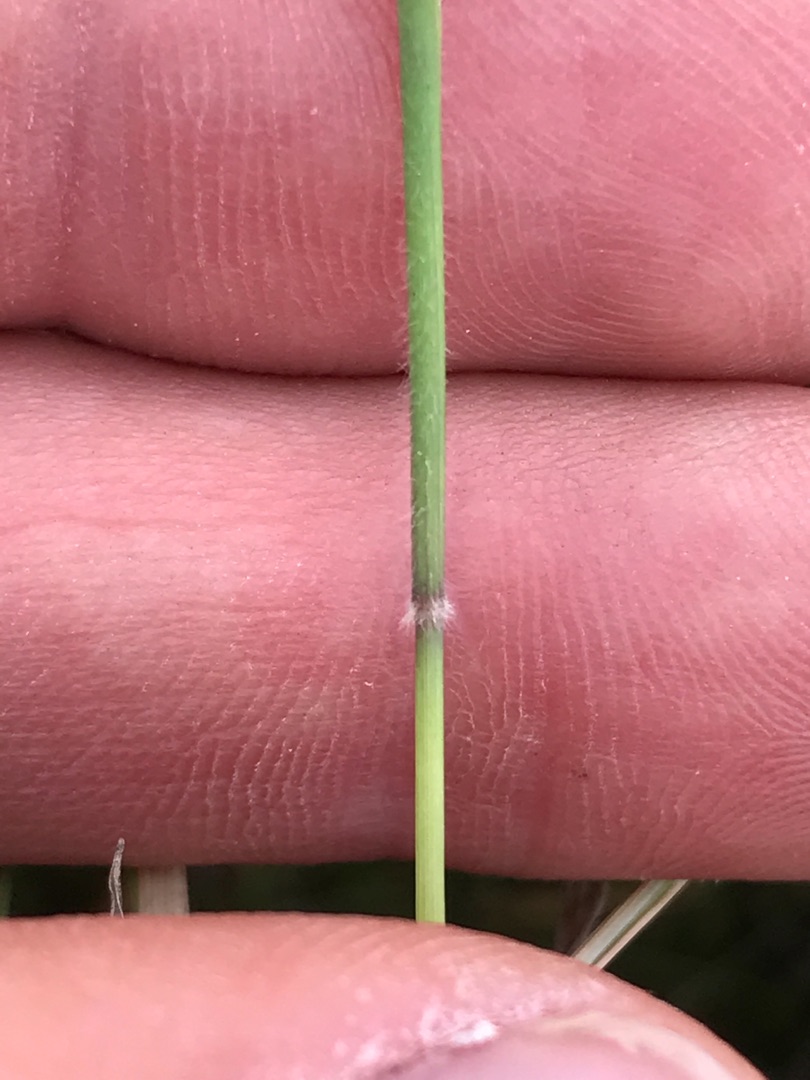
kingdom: Plantae
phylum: Tracheophyta
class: Liliopsida
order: Poales
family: Poaceae
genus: Holcus
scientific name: Holcus mollis
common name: Krybende hestegræs
